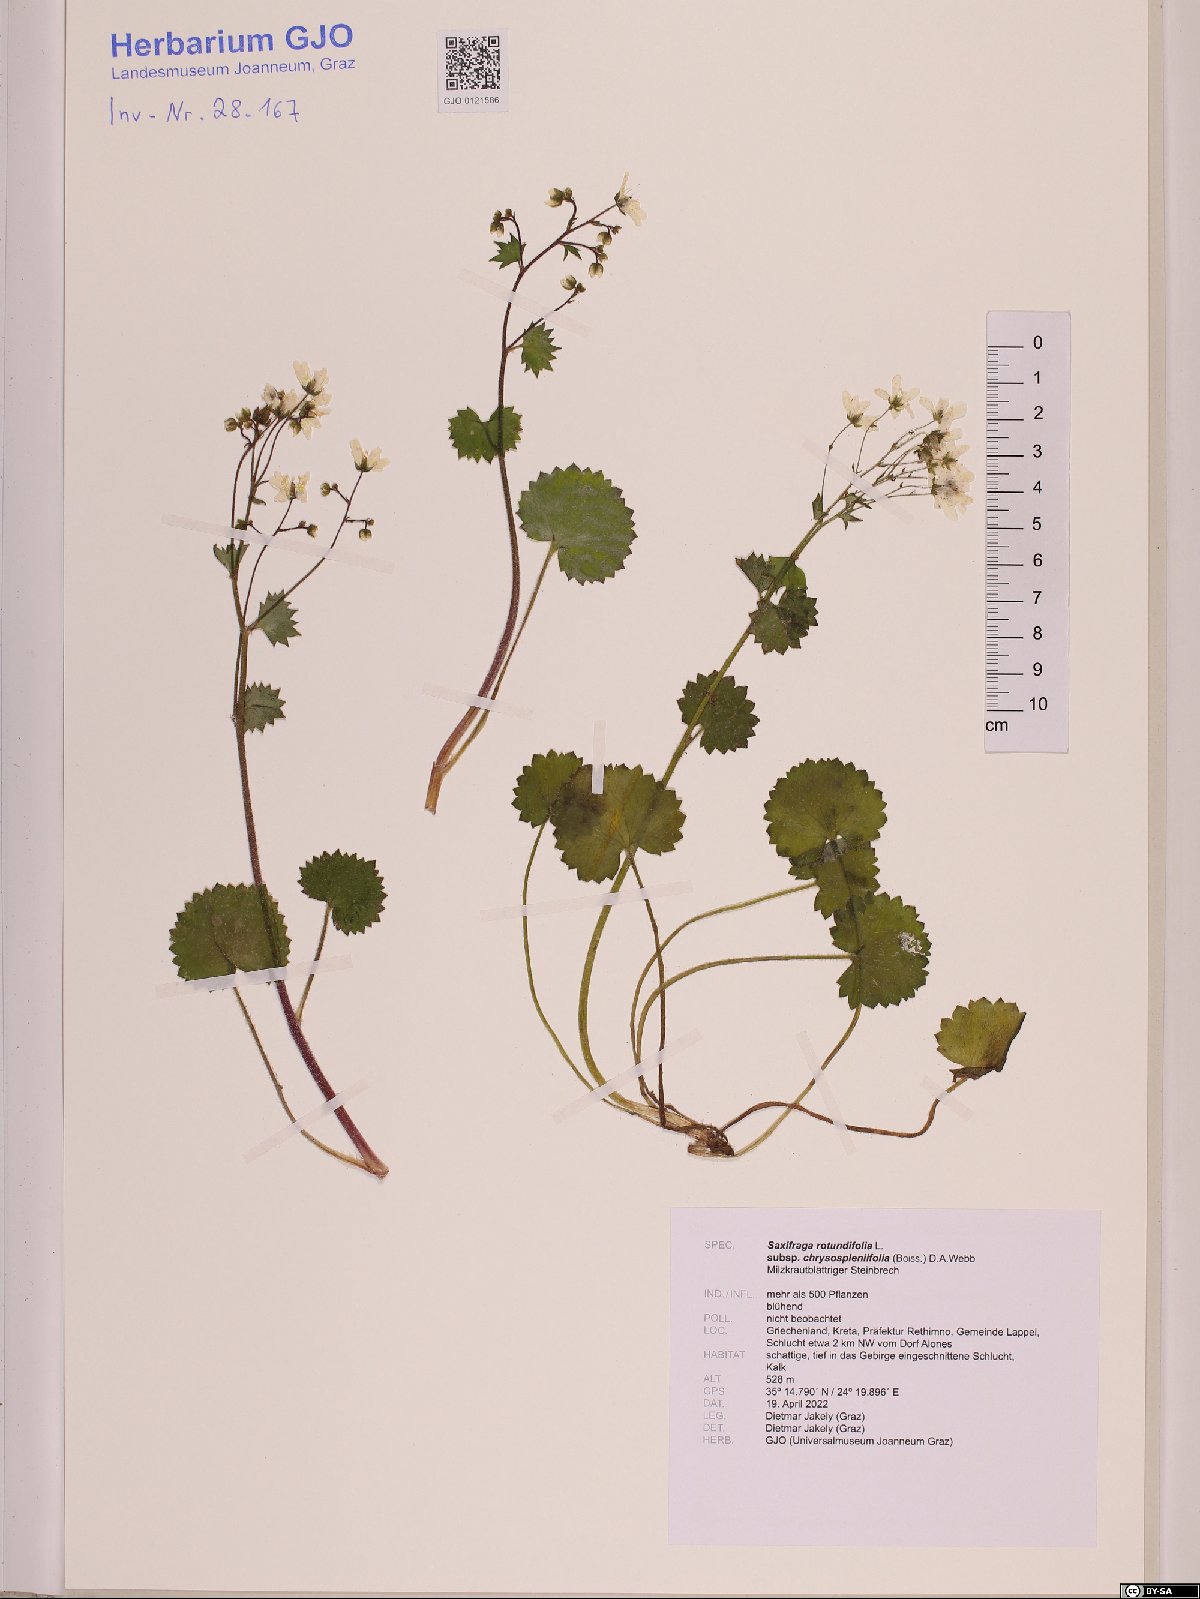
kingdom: Plantae
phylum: Tracheophyta
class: Magnoliopsida
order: Saxifragales
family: Saxifragaceae
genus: Saxifraga
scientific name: Saxifraga rotundifolia
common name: Round-leaved saxifrage
